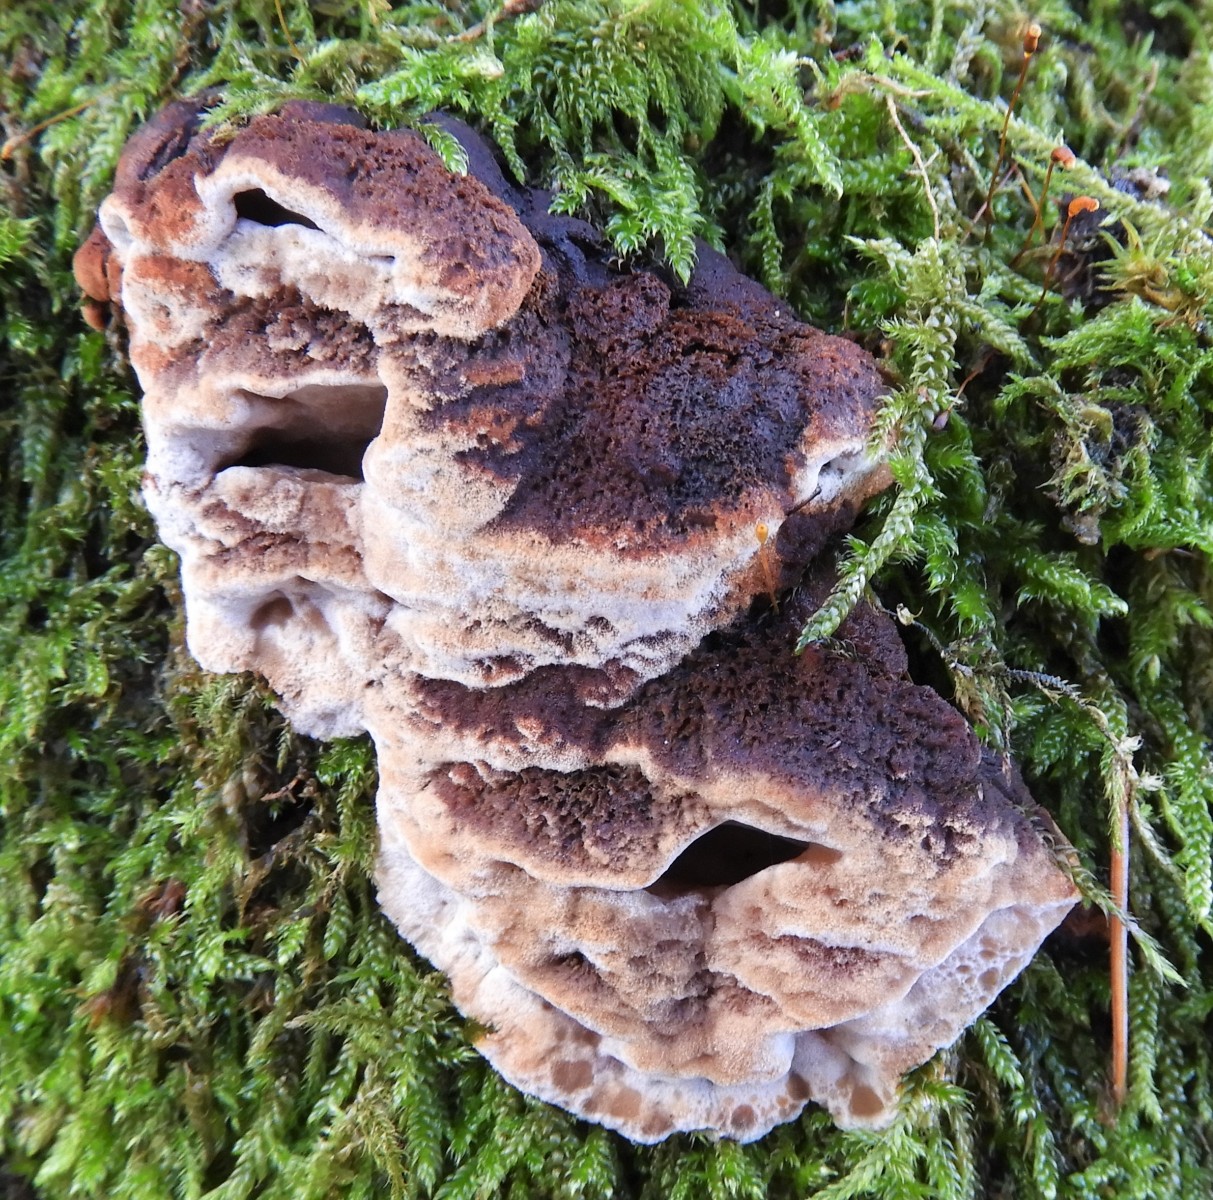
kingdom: Fungi
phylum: Basidiomycota
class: Agaricomycetes
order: Hymenochaetales
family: Hymenochaetaceae
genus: Xanthoporia
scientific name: Xanthoporia radiata
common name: elle-spejlporesvamp
